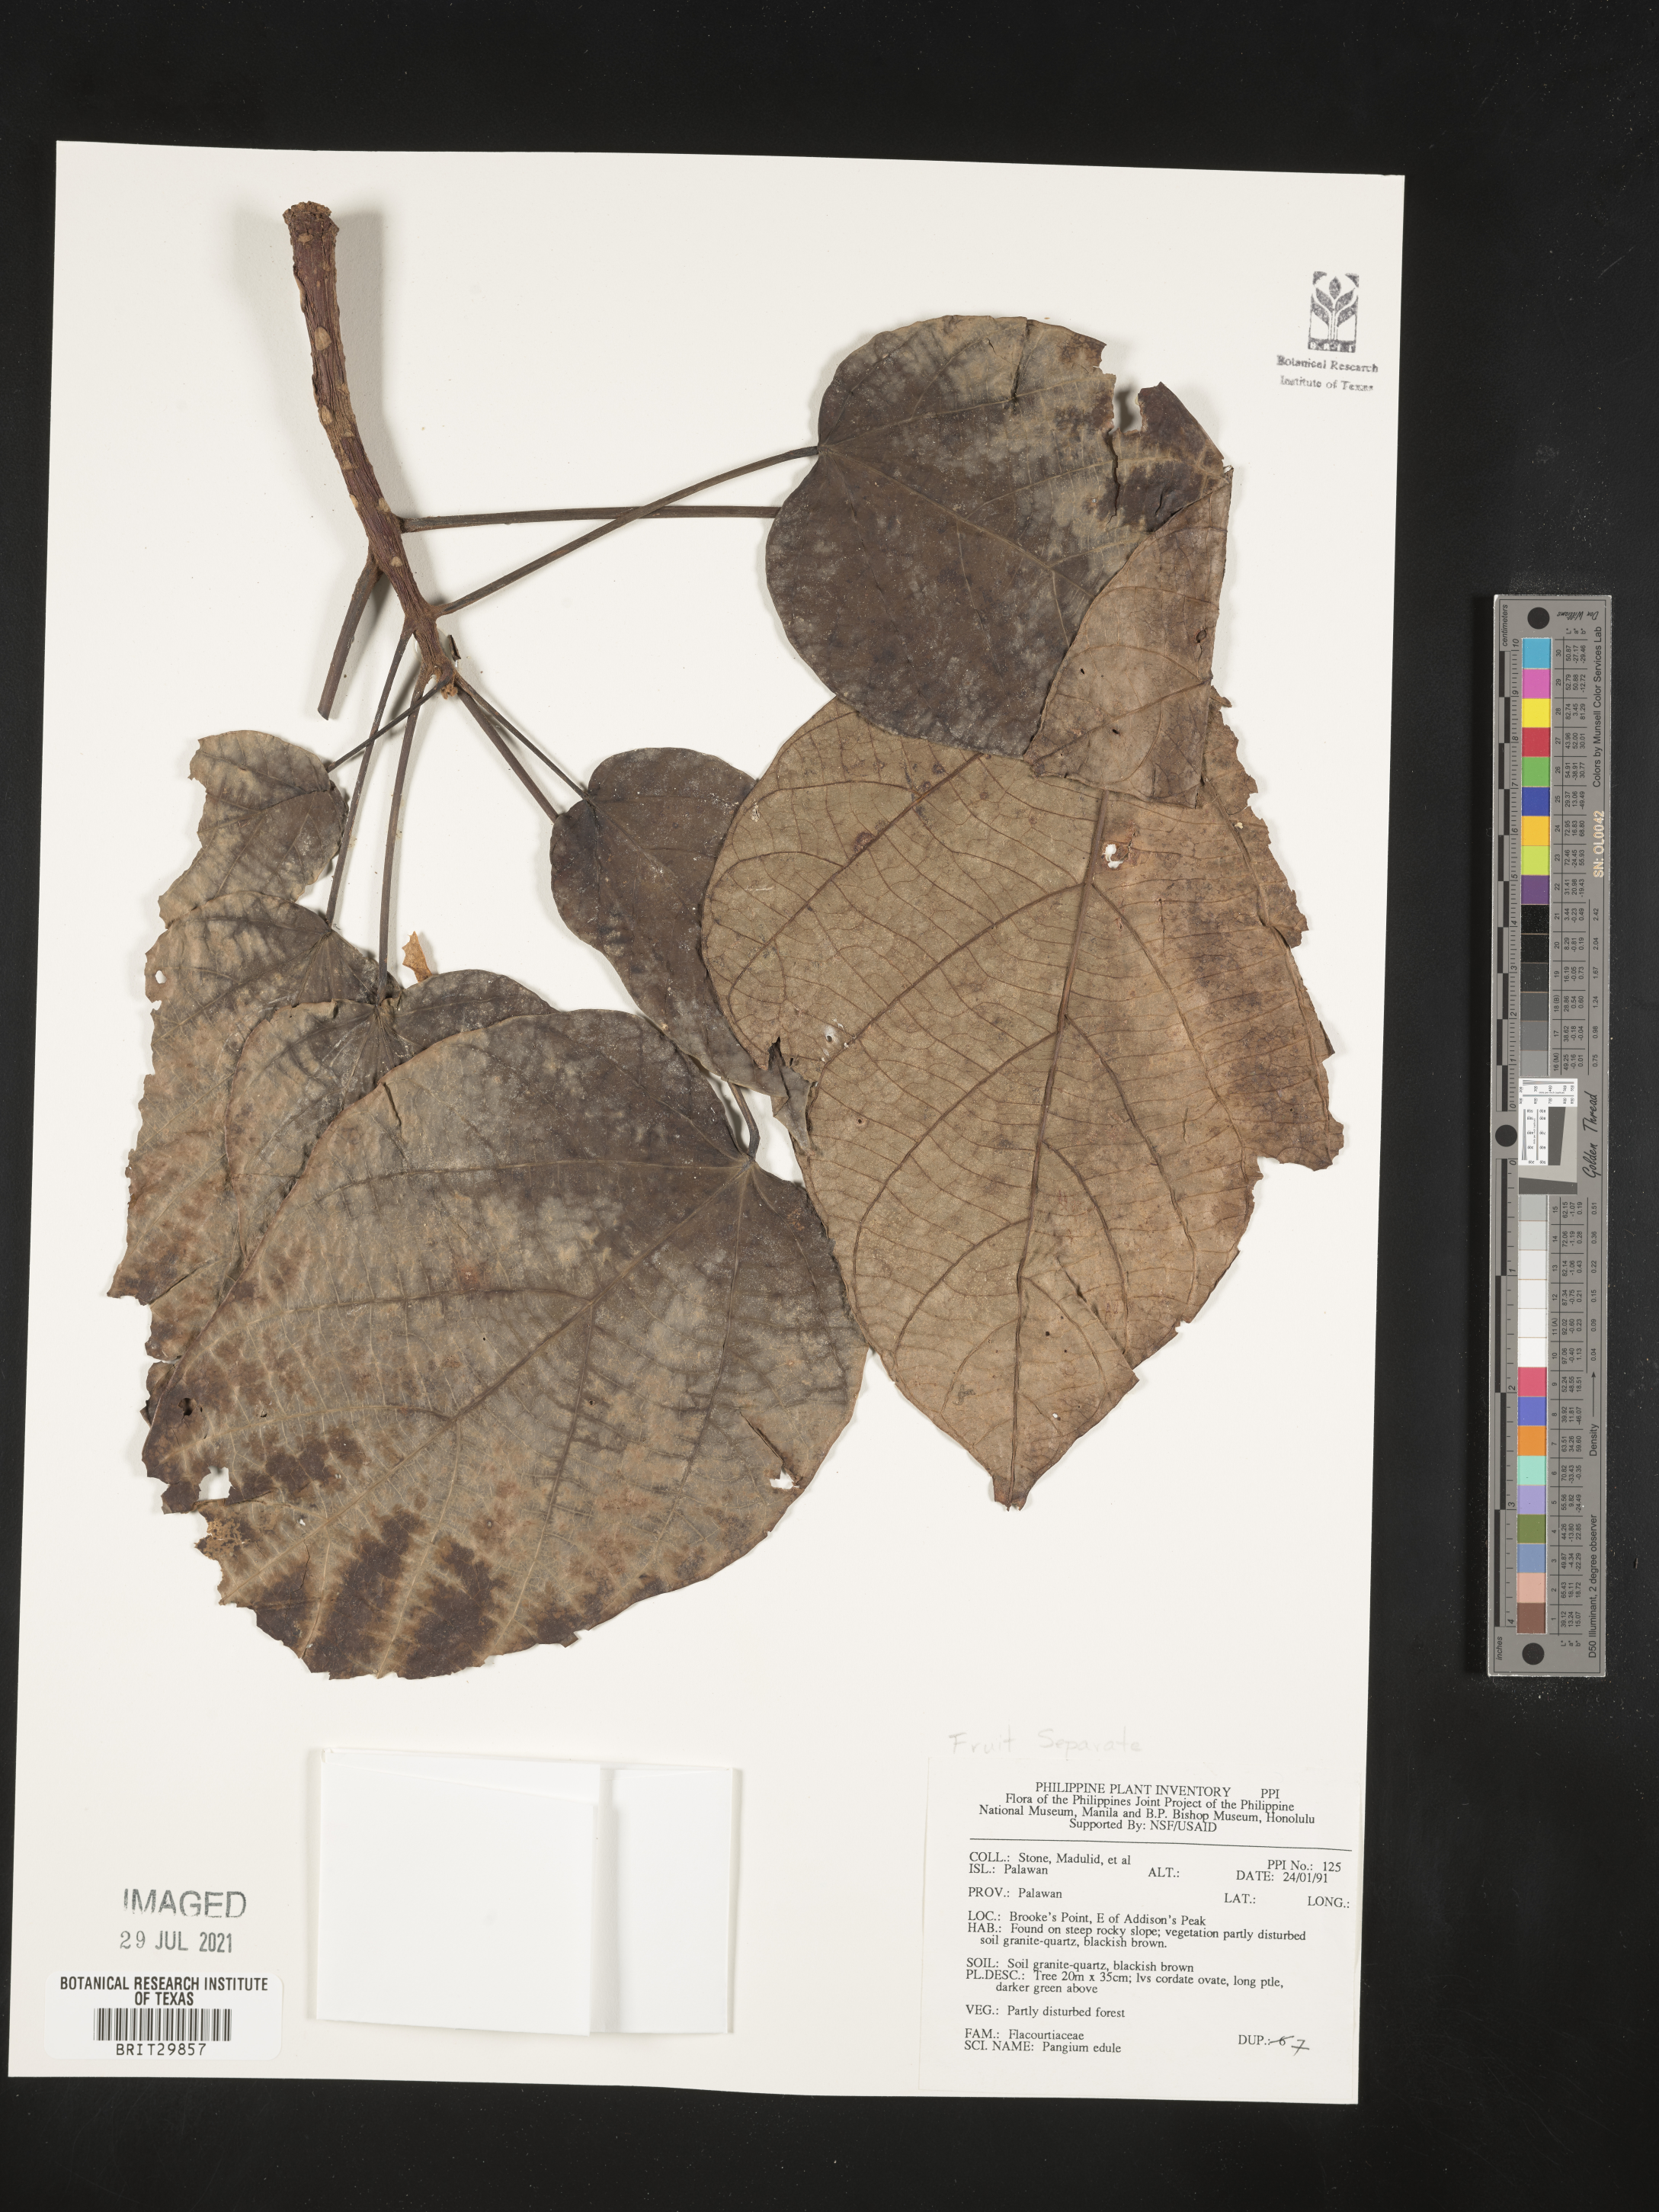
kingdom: Plantae
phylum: Tracheophyta
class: Magnoliopsida
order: Malpighiales
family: Achariaceae
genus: Pangium
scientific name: Pangium edule
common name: Football fruit
